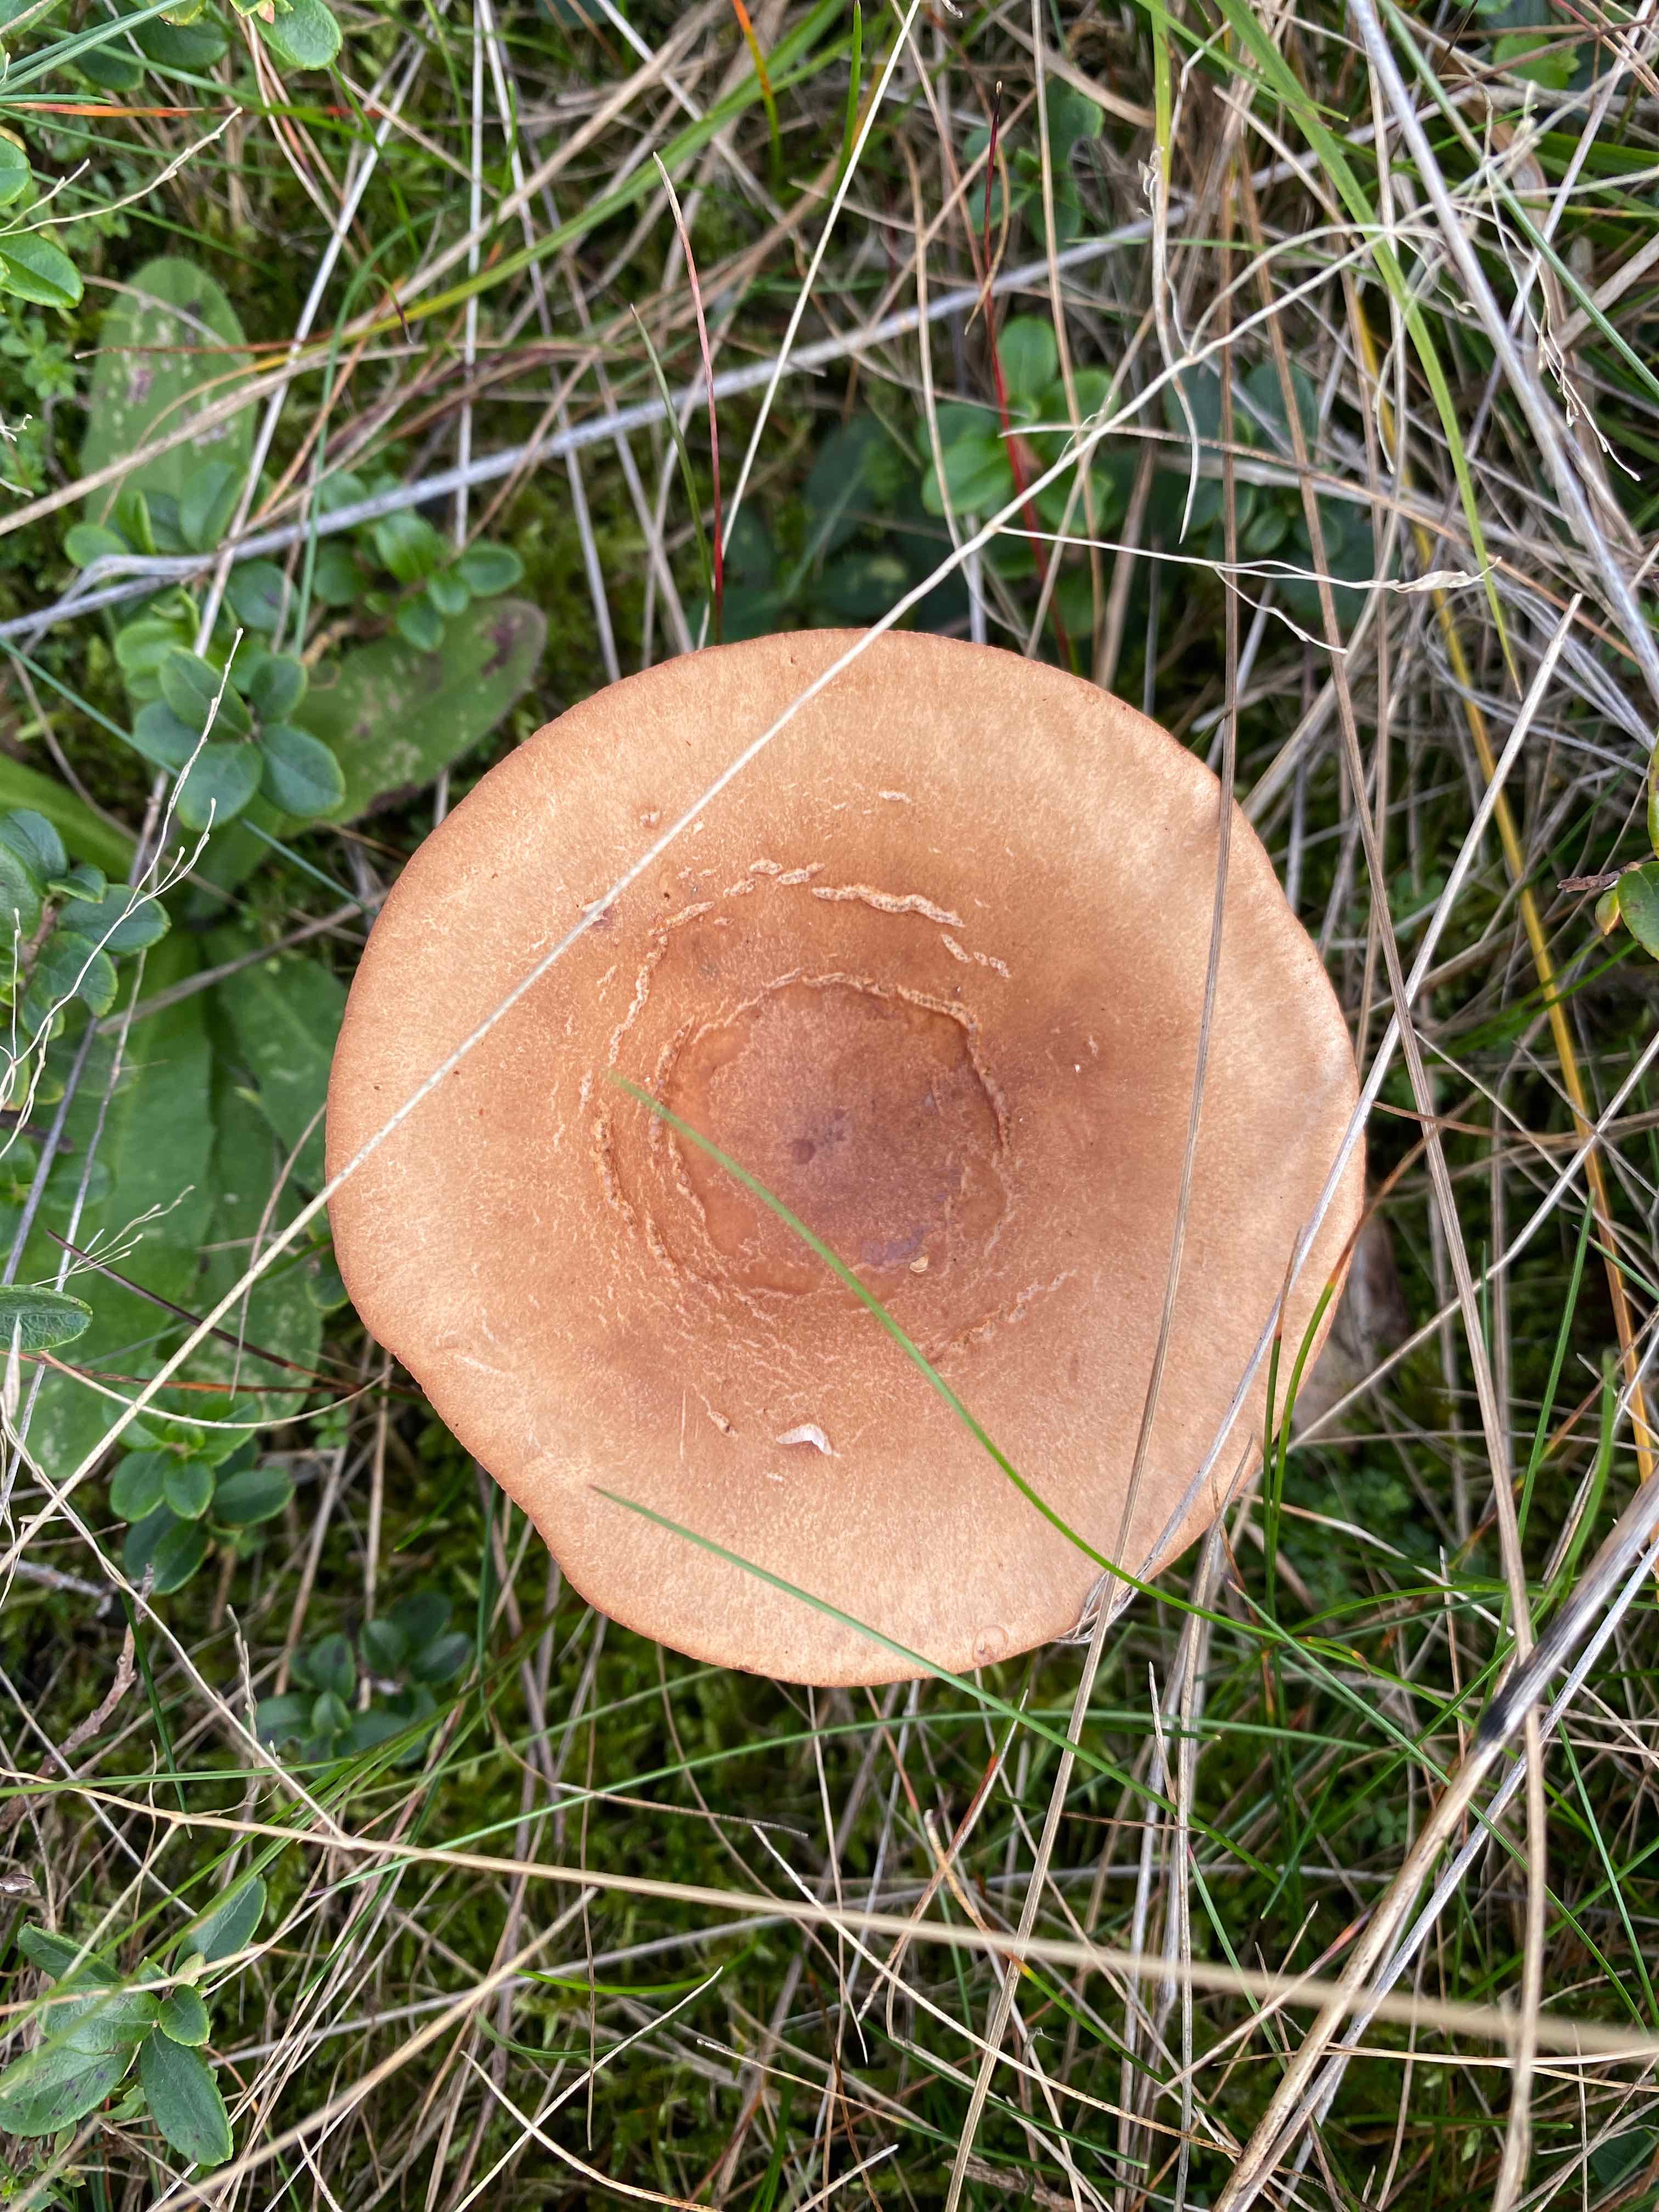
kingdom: Fungi
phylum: Basidiomycota
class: Agaricomycetes
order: Russulales
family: Russulaceae
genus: Lactarius
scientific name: Lactarius
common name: mælkehat
